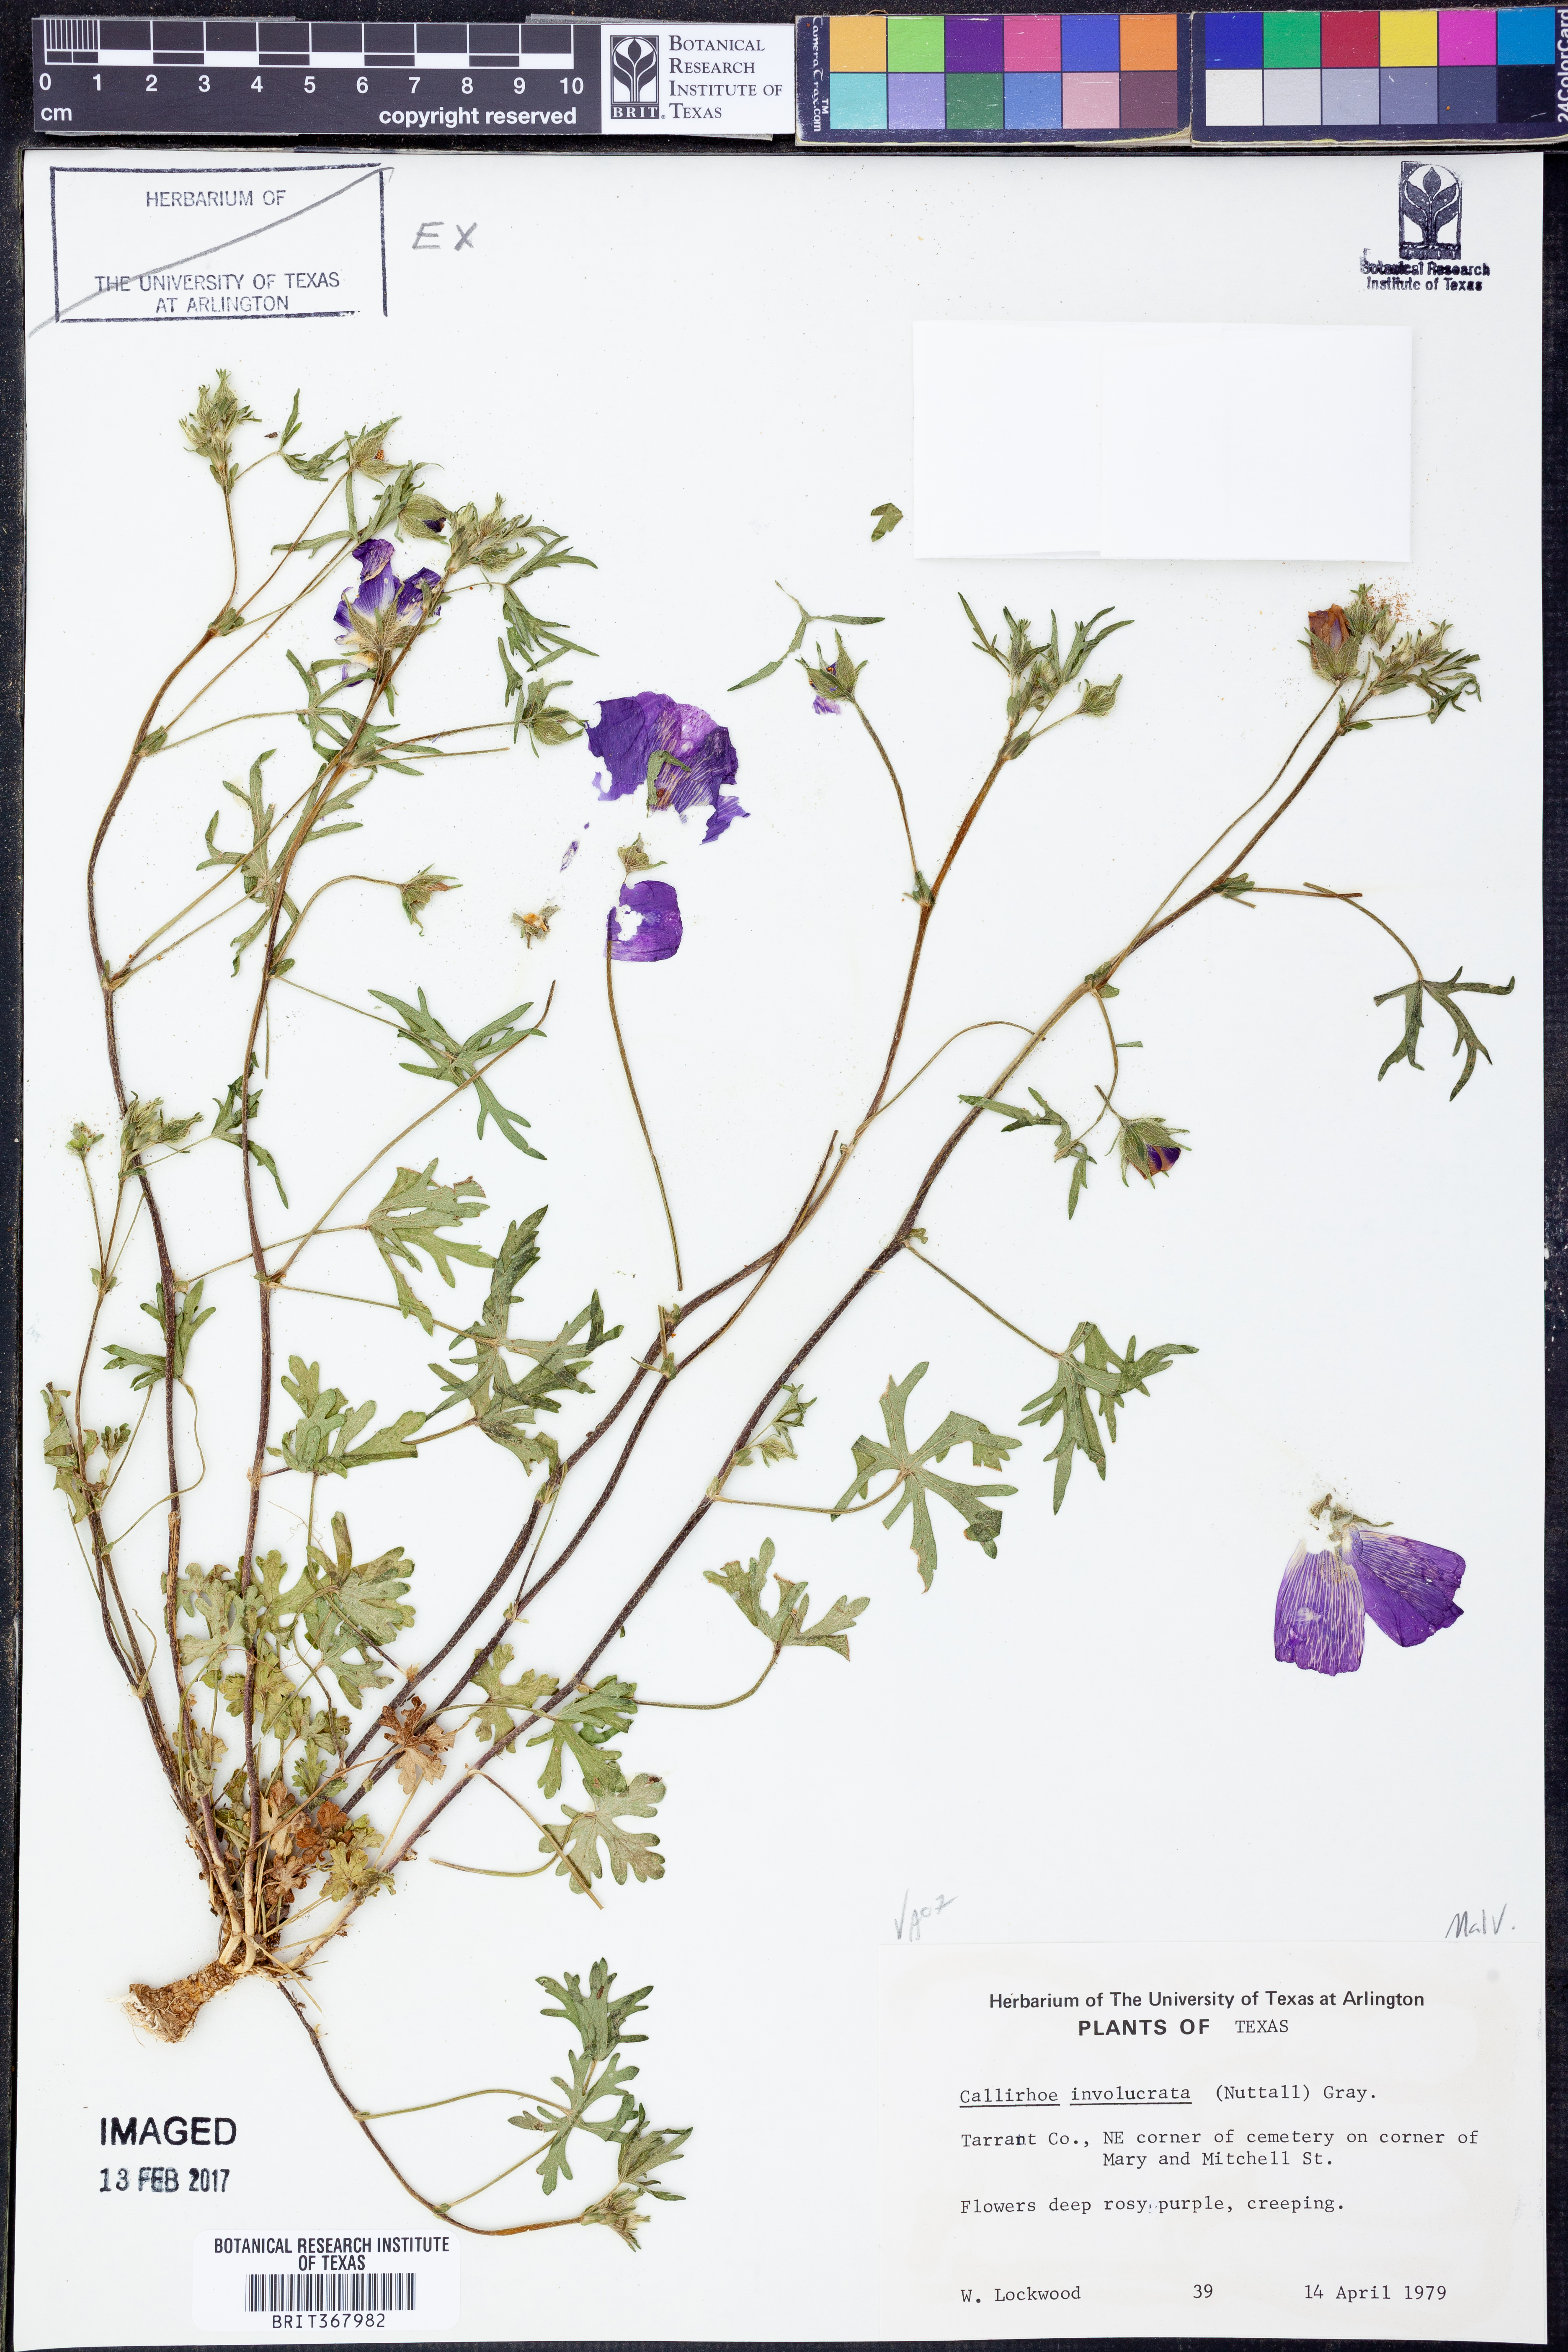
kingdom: Plantae
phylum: Tracheophyta
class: Magnoliopsida
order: Malvales
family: Malvaceae
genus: Callirhoe
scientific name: Callirhoe involucrata
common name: Purple poppy-mallow
